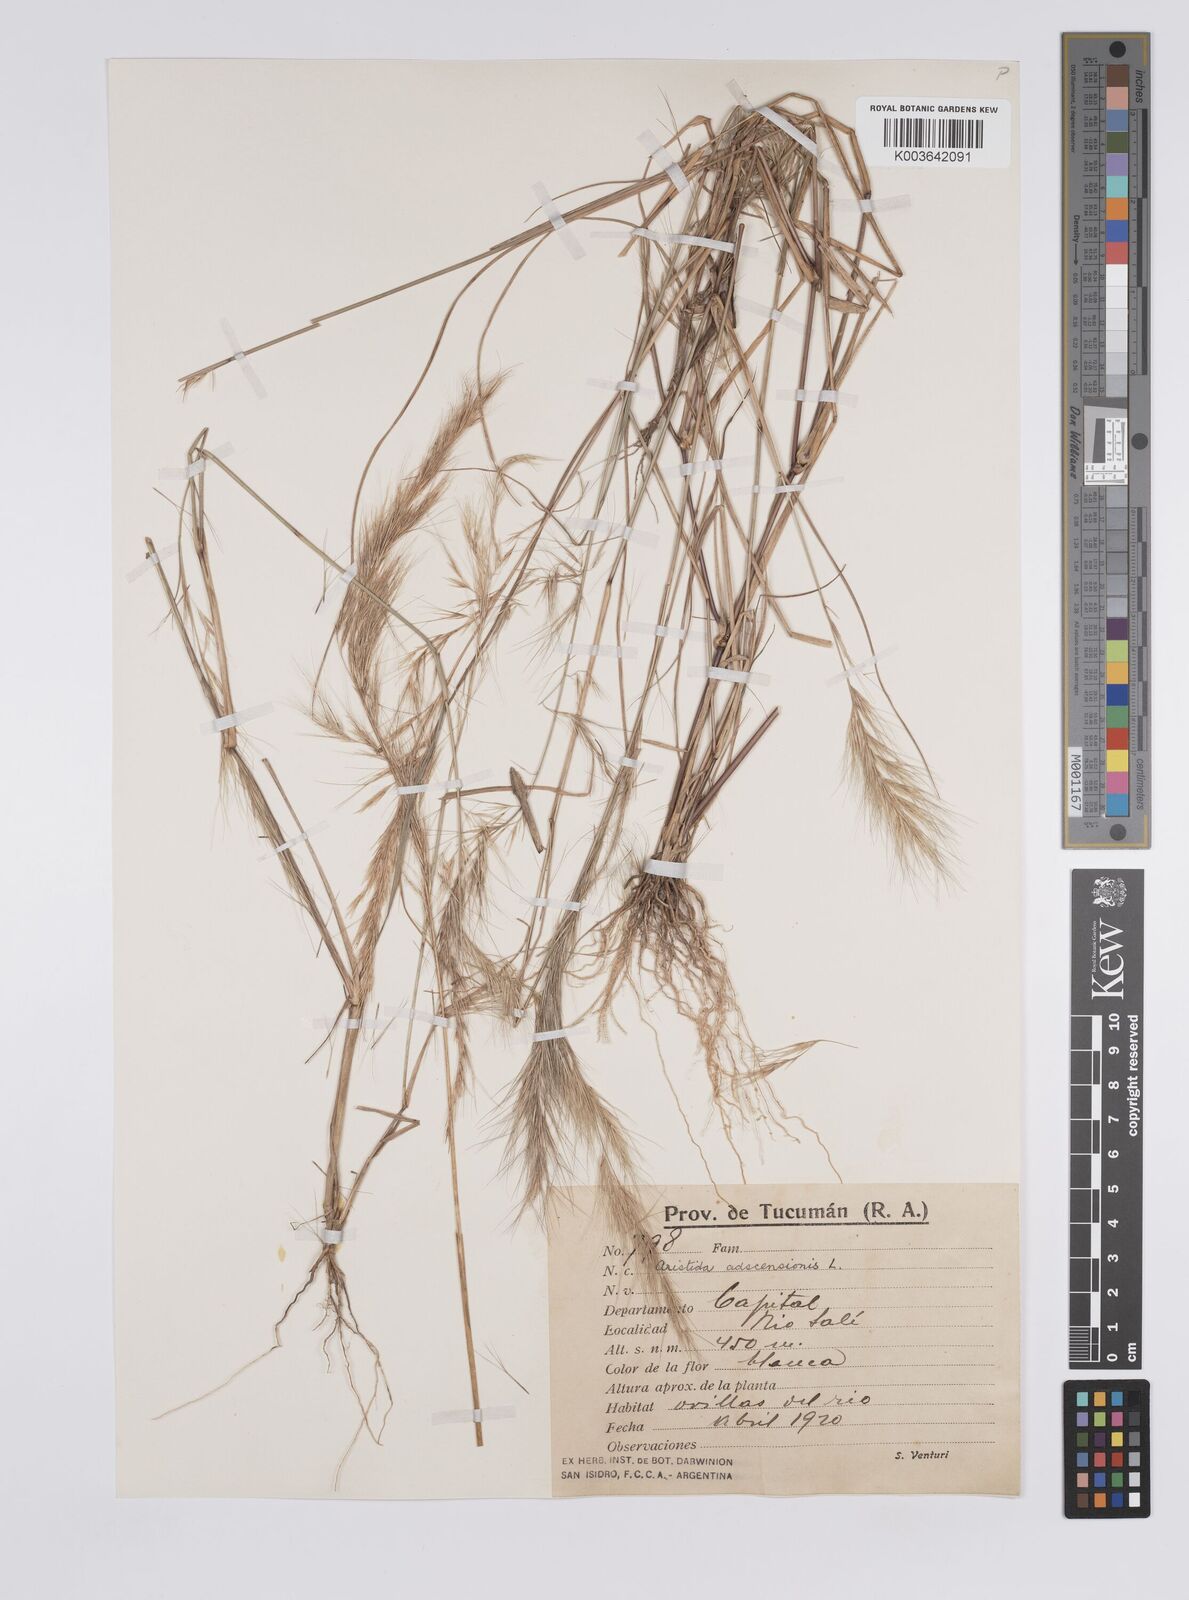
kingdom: Plantae
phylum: Tracheophyta
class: Liliopsida
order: Poales
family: Poaceae
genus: Aristida
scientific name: Aristida adscensionis
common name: Sixweeks threeawn
